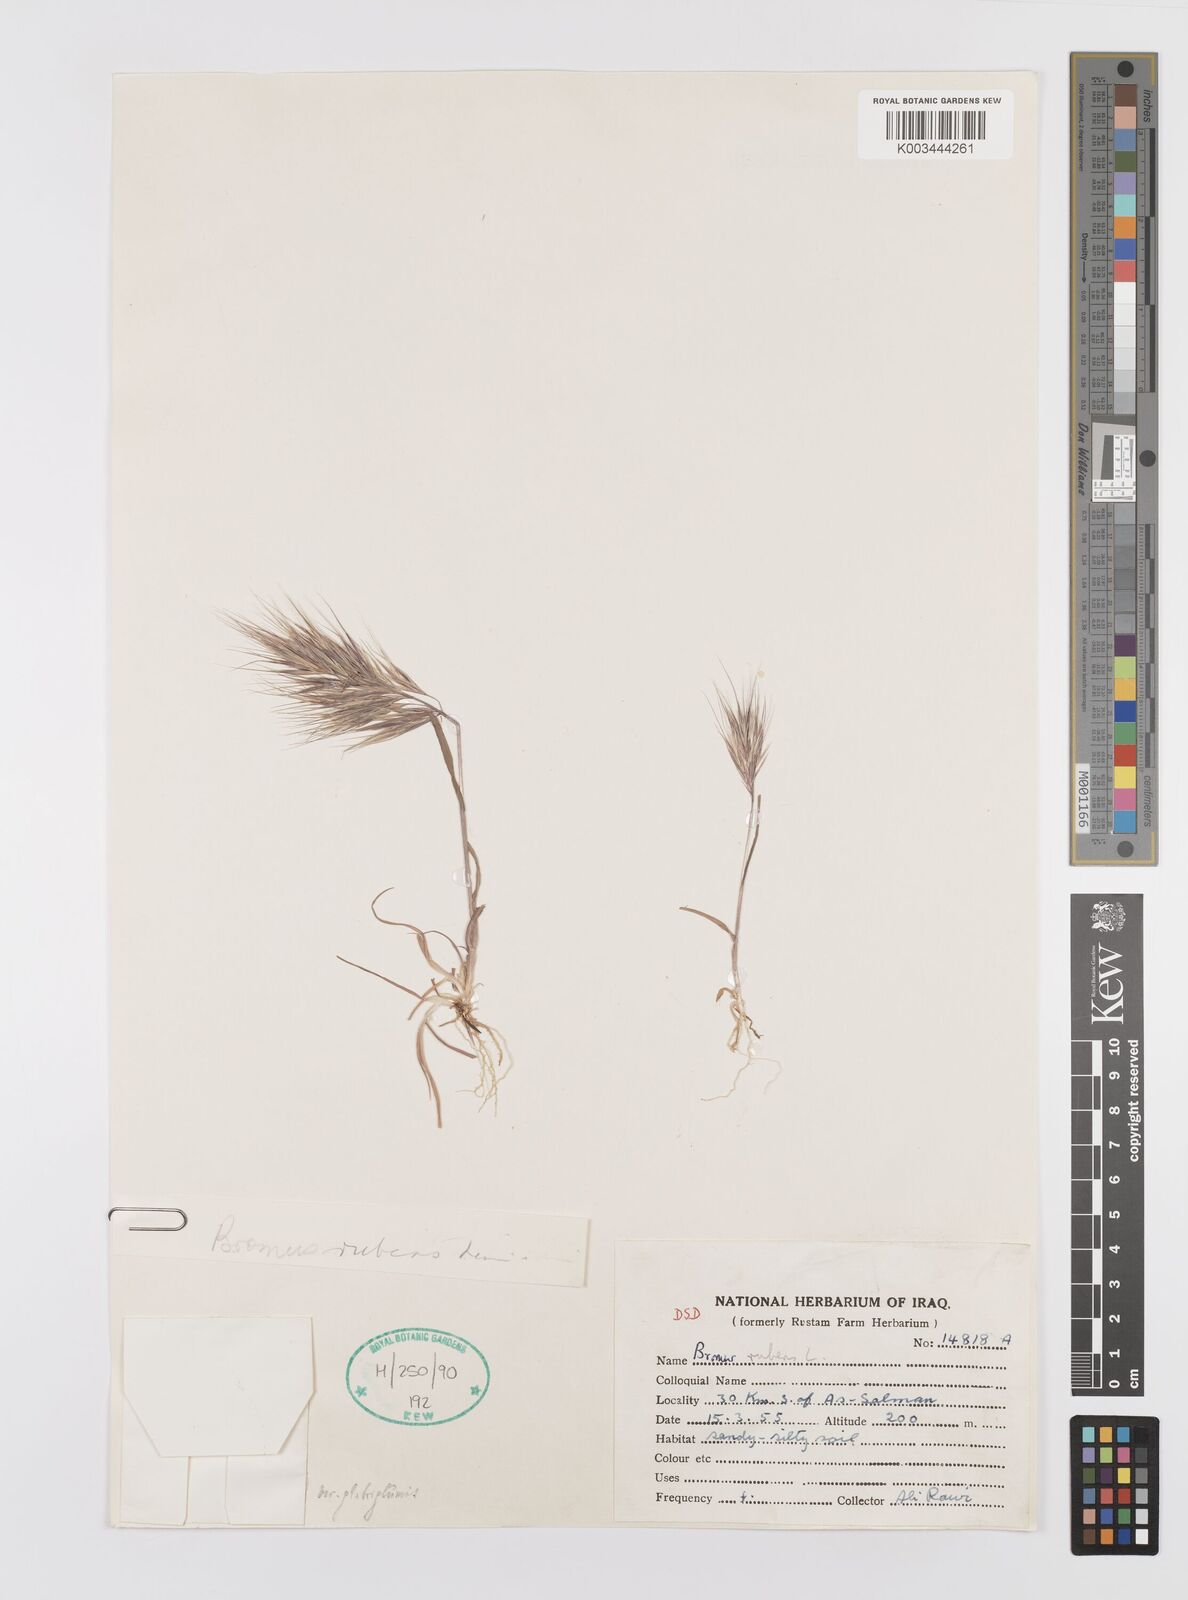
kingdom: Plantae
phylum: Tracheophyta
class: Liliopsida
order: Poales
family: Poaceae
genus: Bromus
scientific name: Bromus madritensis
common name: Compact brome
